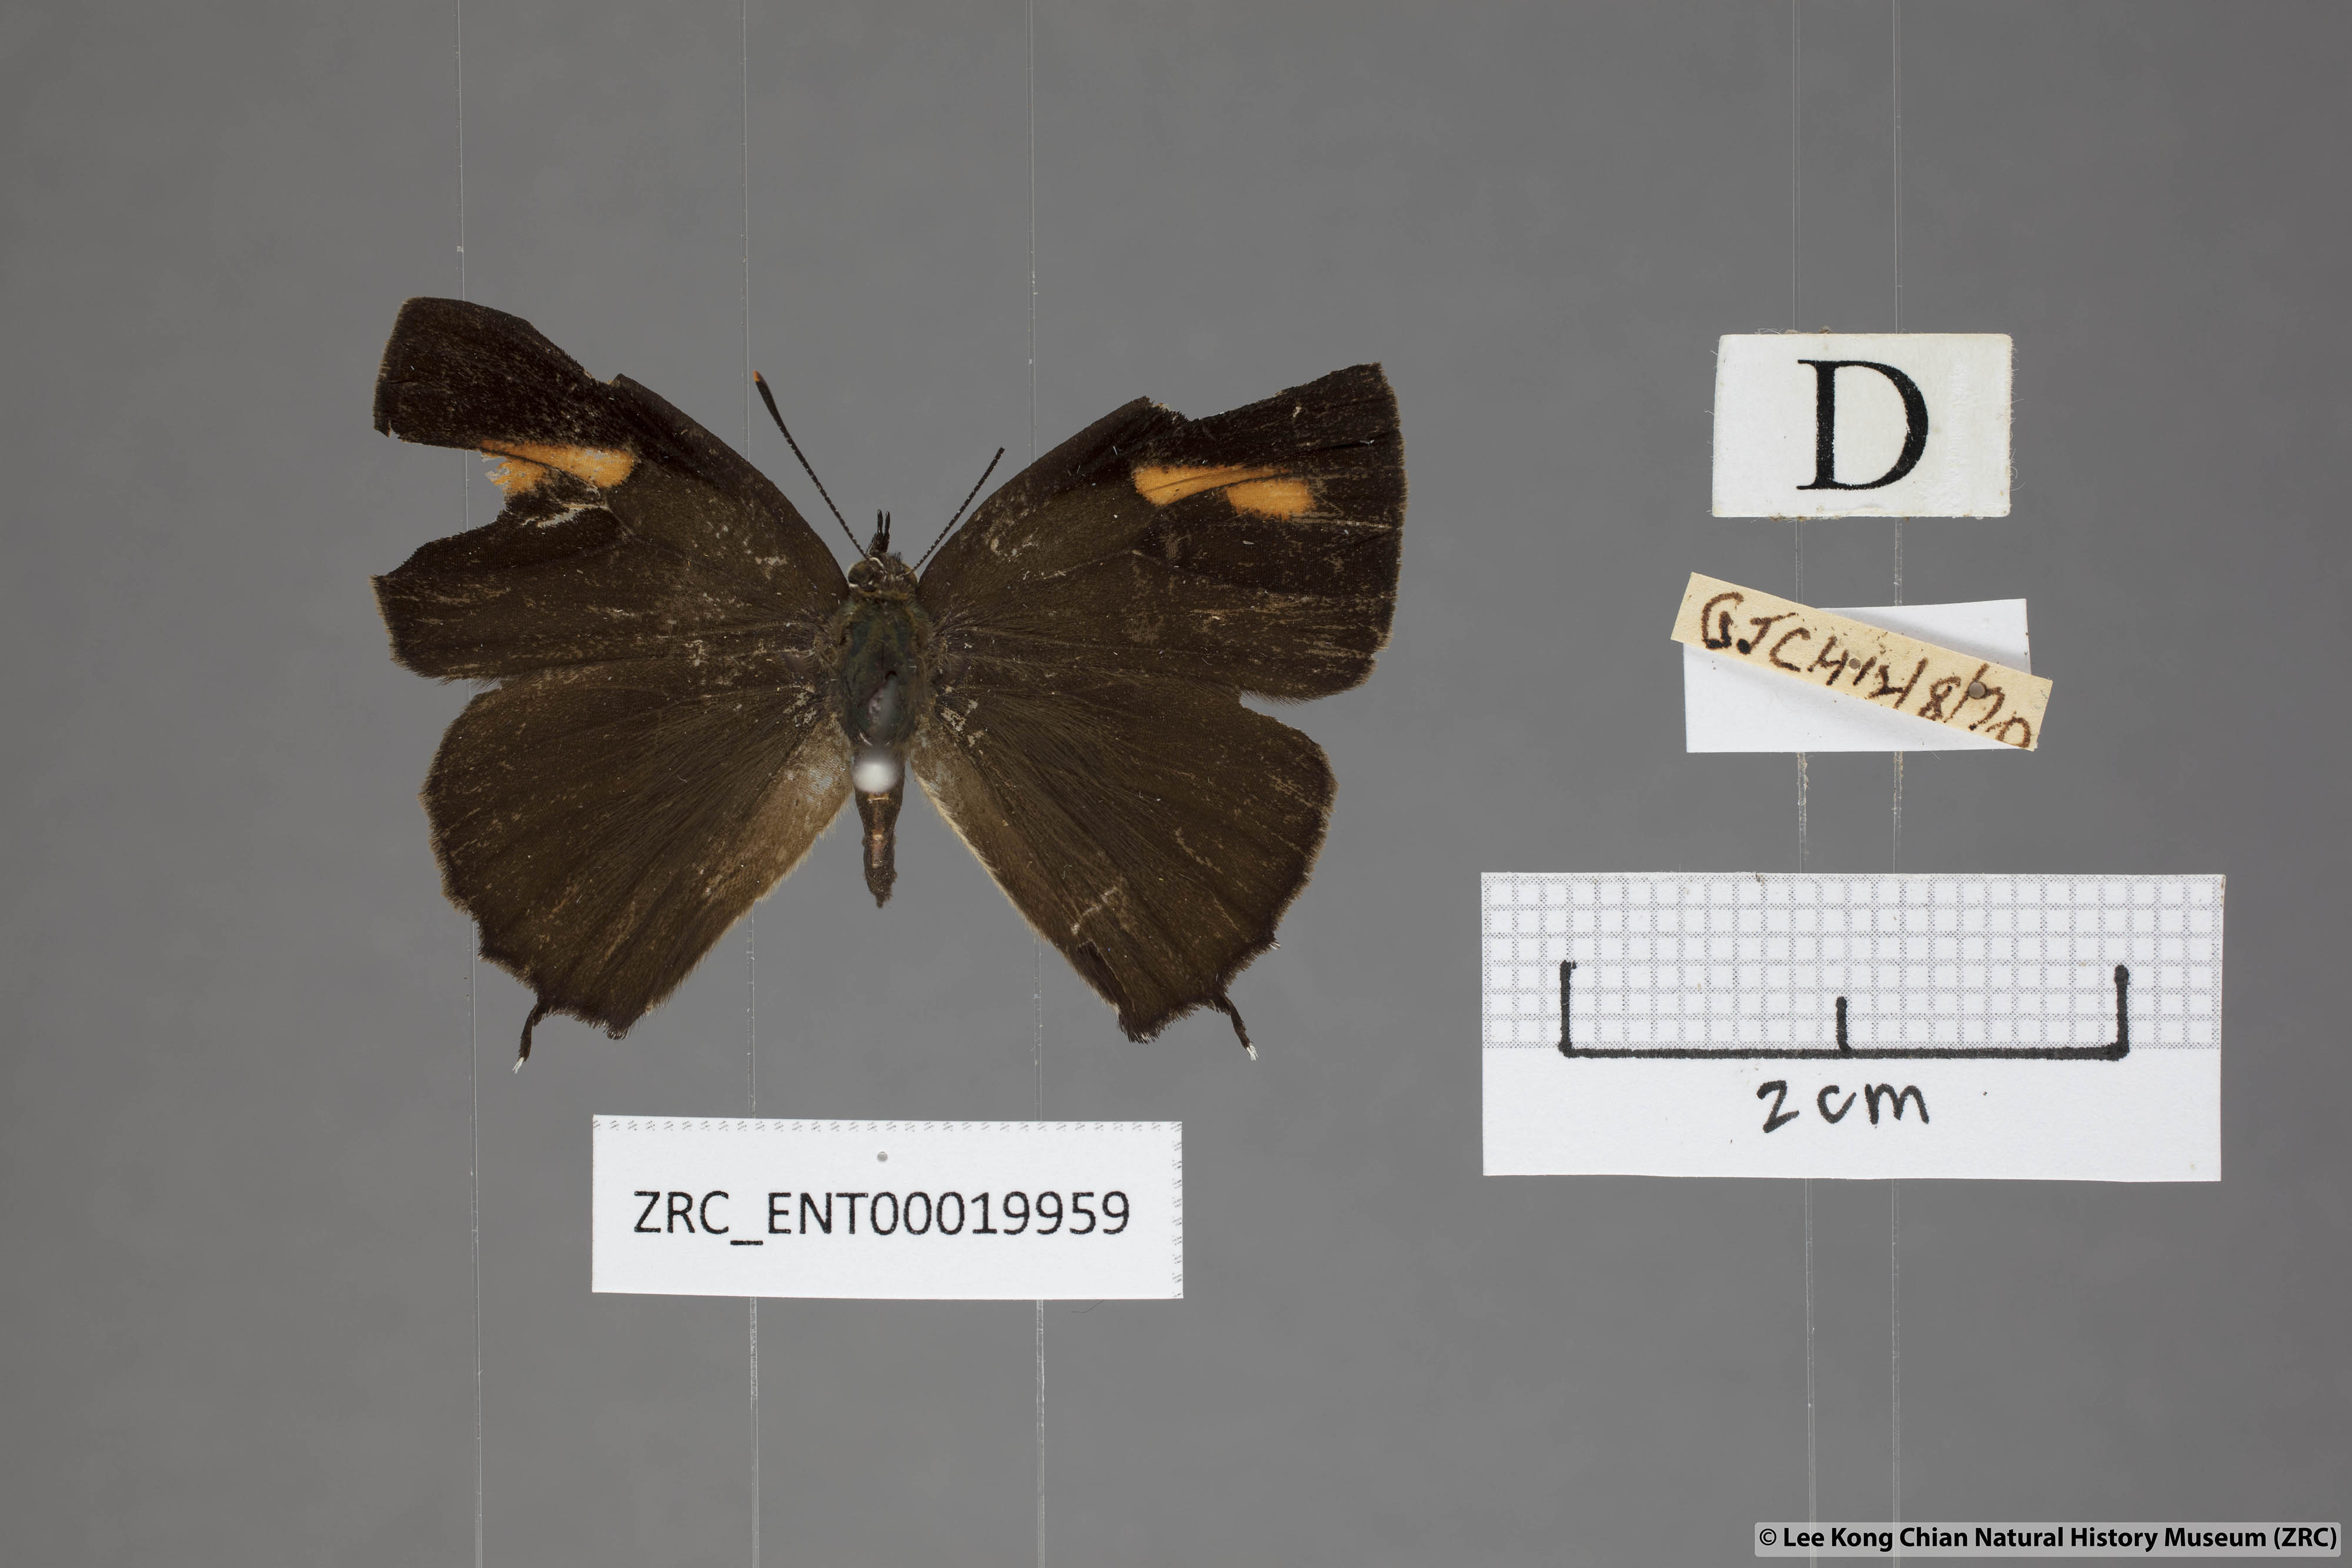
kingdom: Animalia
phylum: Arthropoda
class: Insecta
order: Lepidoptera
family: Lycaenidae
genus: Austrozephyrus
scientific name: Austrozephyrus absolon
